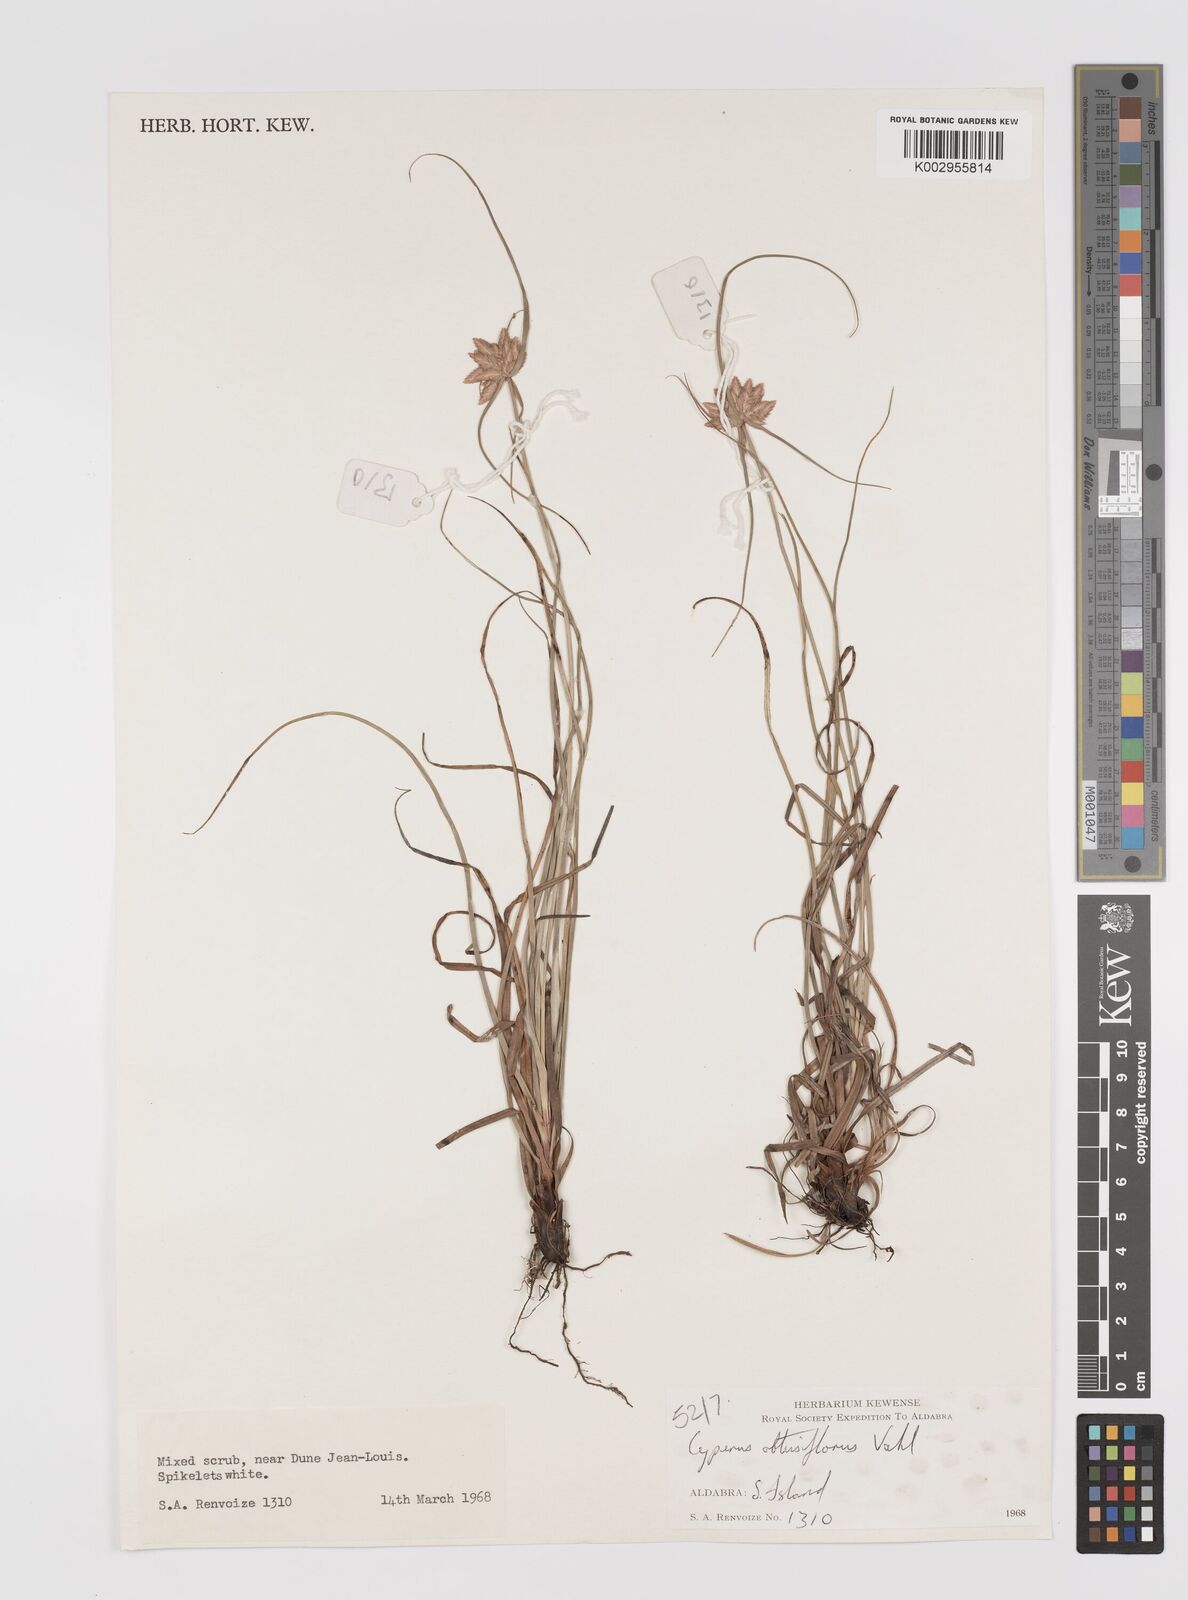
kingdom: Plantae
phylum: Tracheophyta
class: Liliopsida
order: Poales
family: Cyperaceae
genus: Cyperus
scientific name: Cyperus niveus
